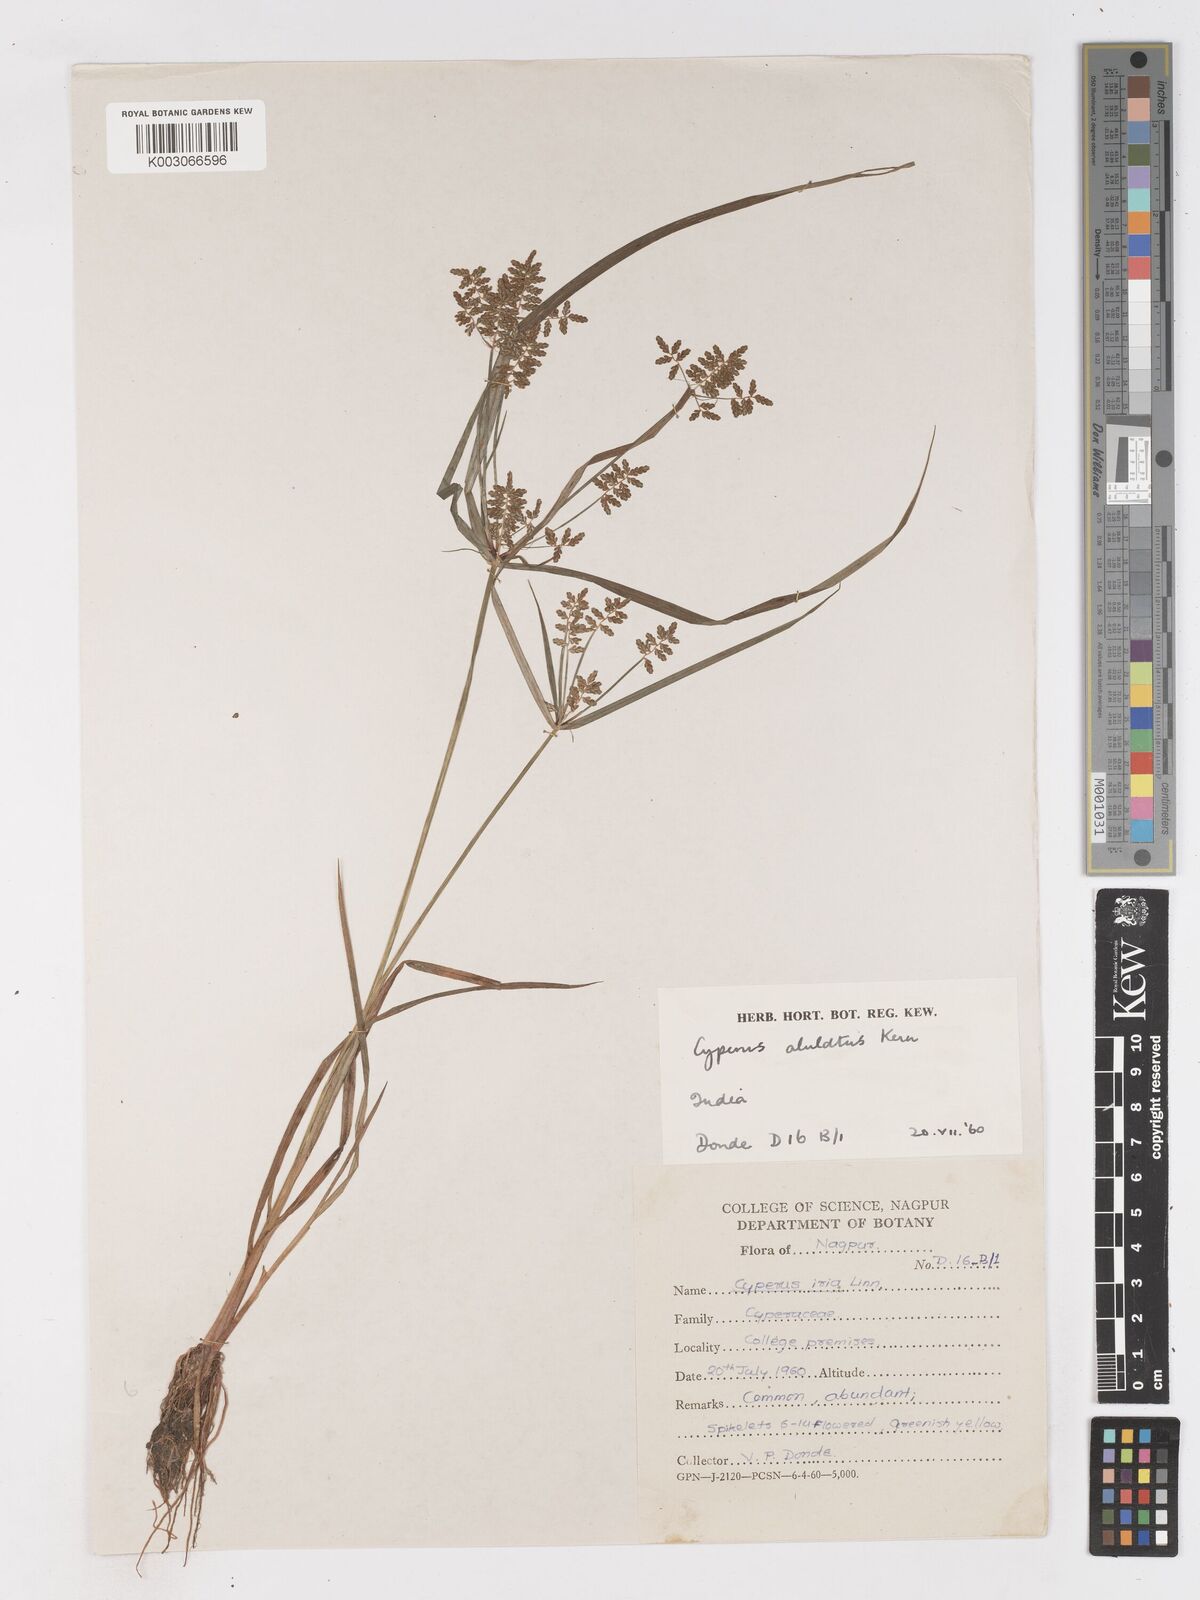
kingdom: Plantae
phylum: Tracheophyta
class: Liliopsida
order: Poales
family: Cyperaceae
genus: Cyperus
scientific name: Cyperus alulatus
